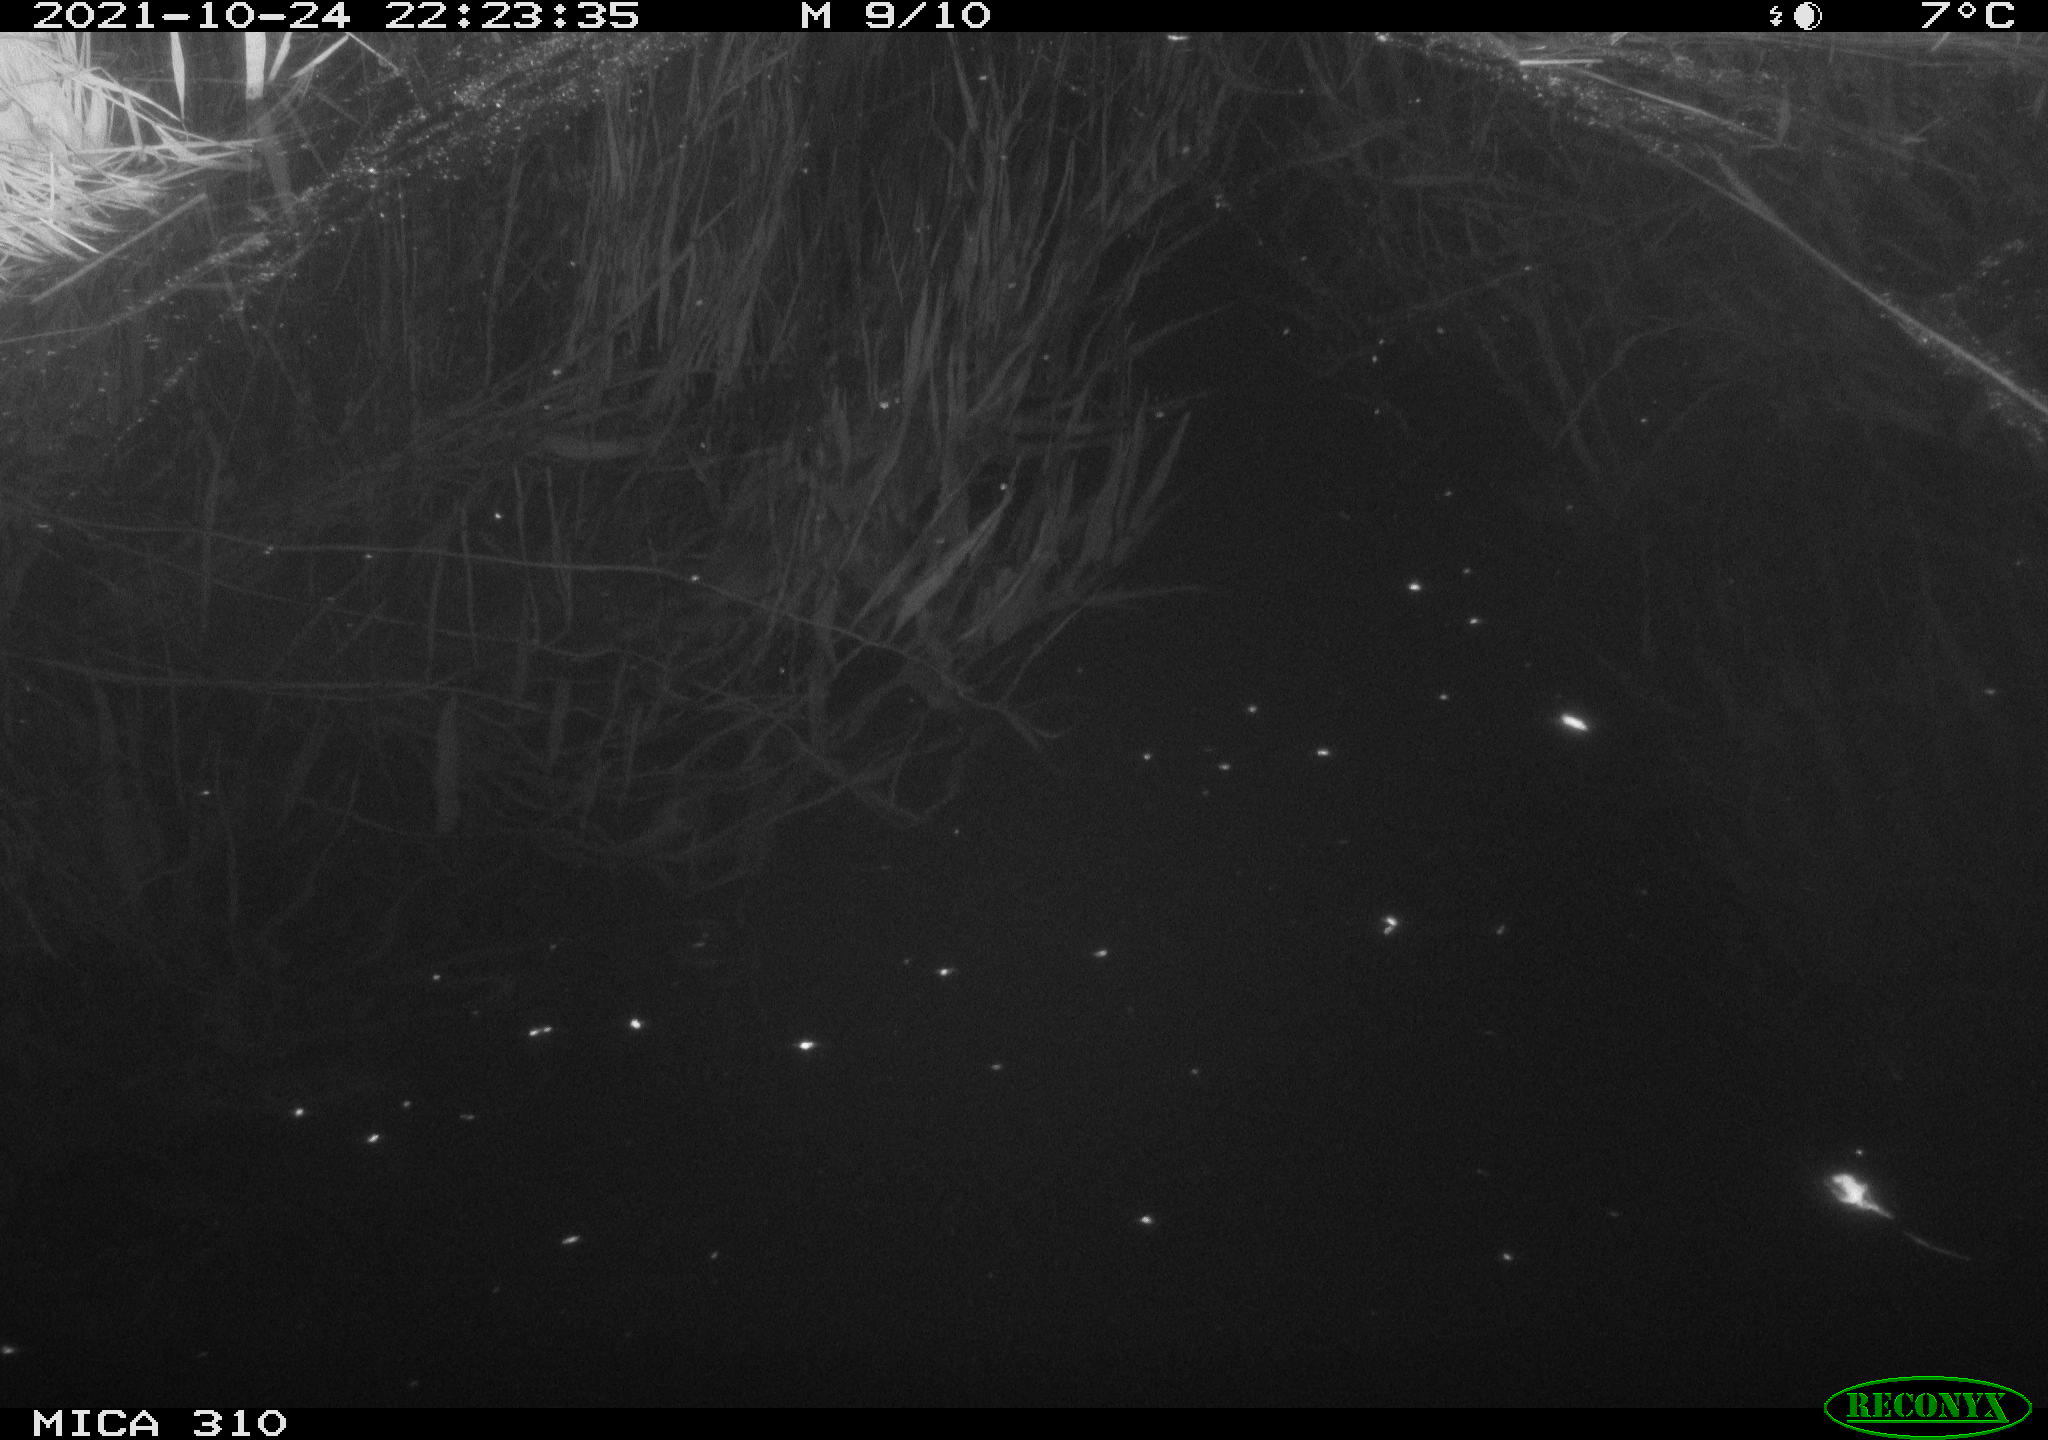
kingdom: Animalia
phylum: Chordata
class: Aves
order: Anseriformes
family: Anatidae
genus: Anas
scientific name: Anas platyrhynchos
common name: Mallard
